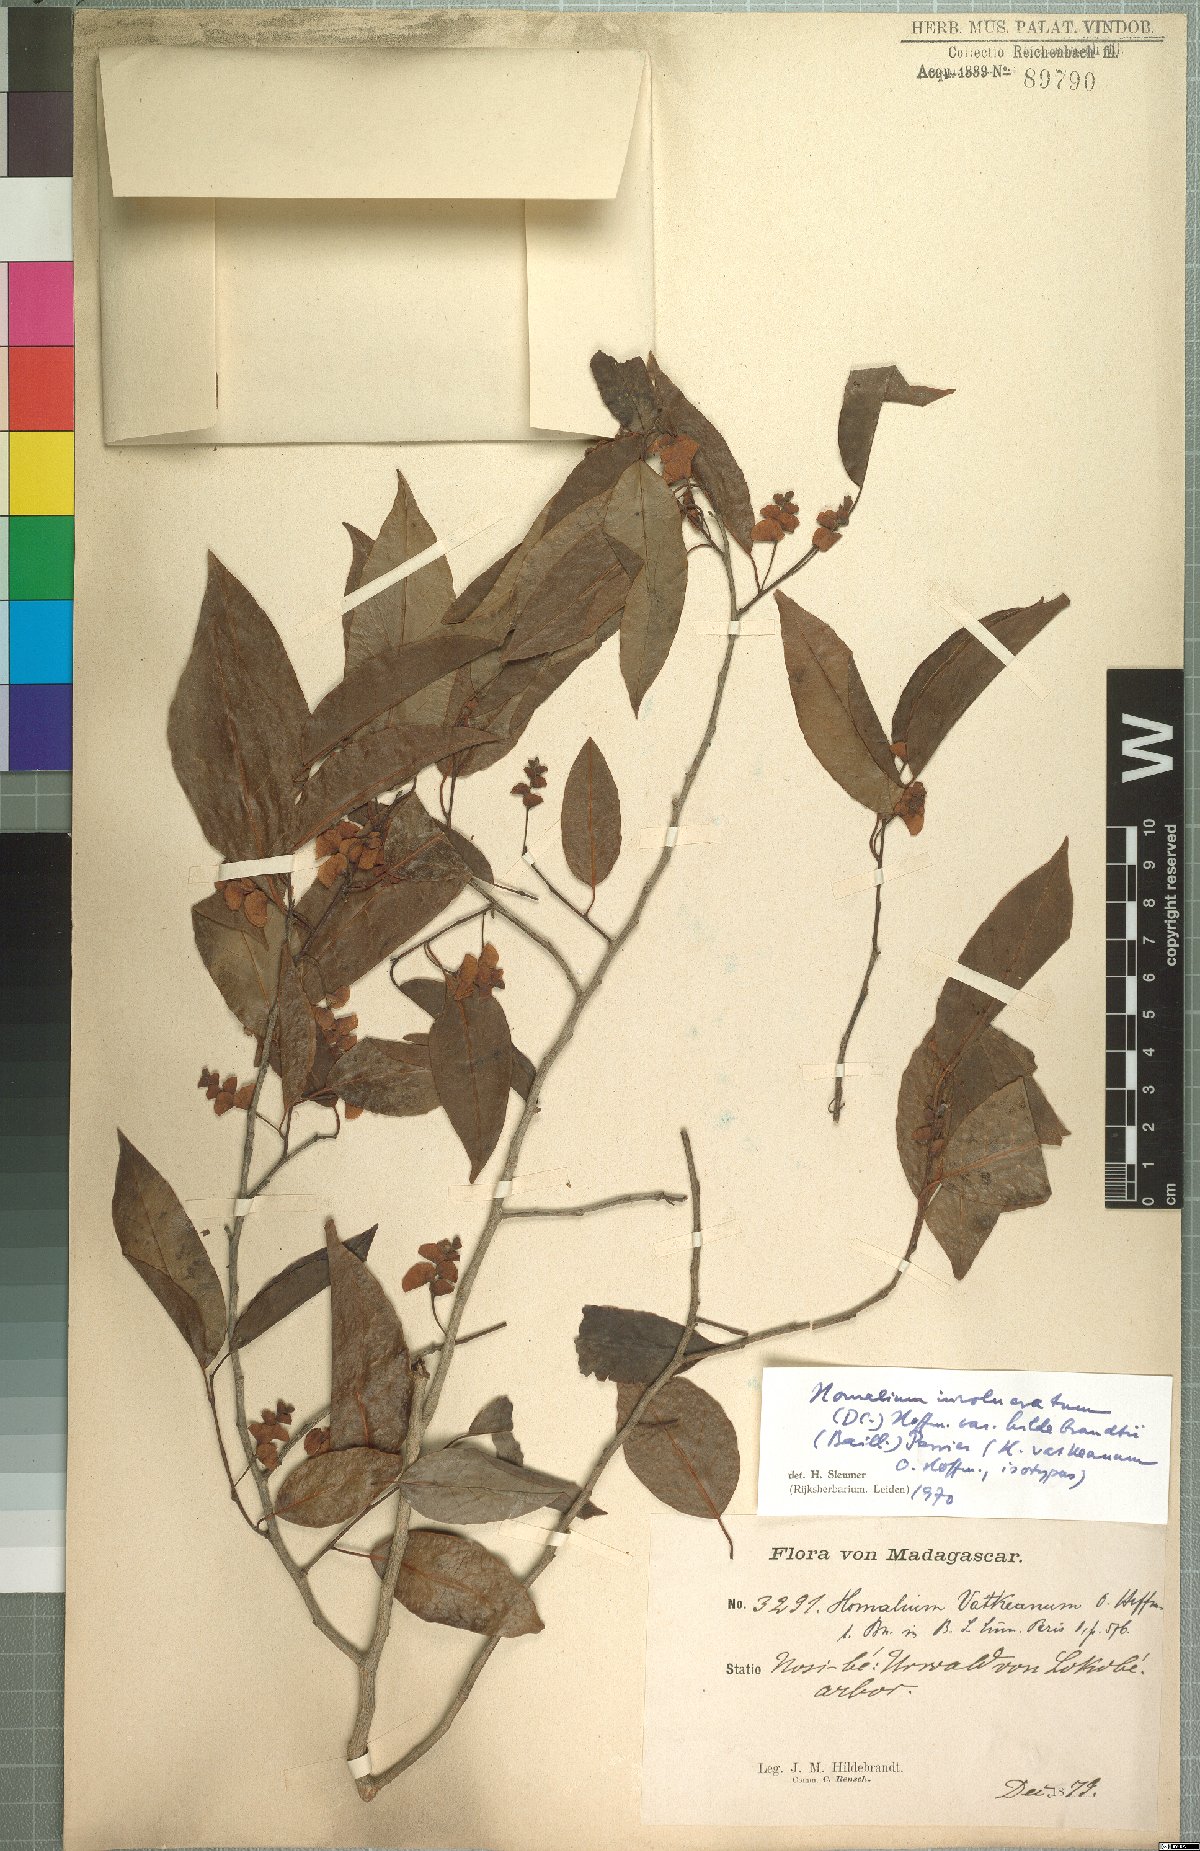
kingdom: Plantae
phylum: Tracheophyta
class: Magnoliopsida
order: Malpighiales
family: Salicaceae
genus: Homalium
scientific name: Homalium involucratum
